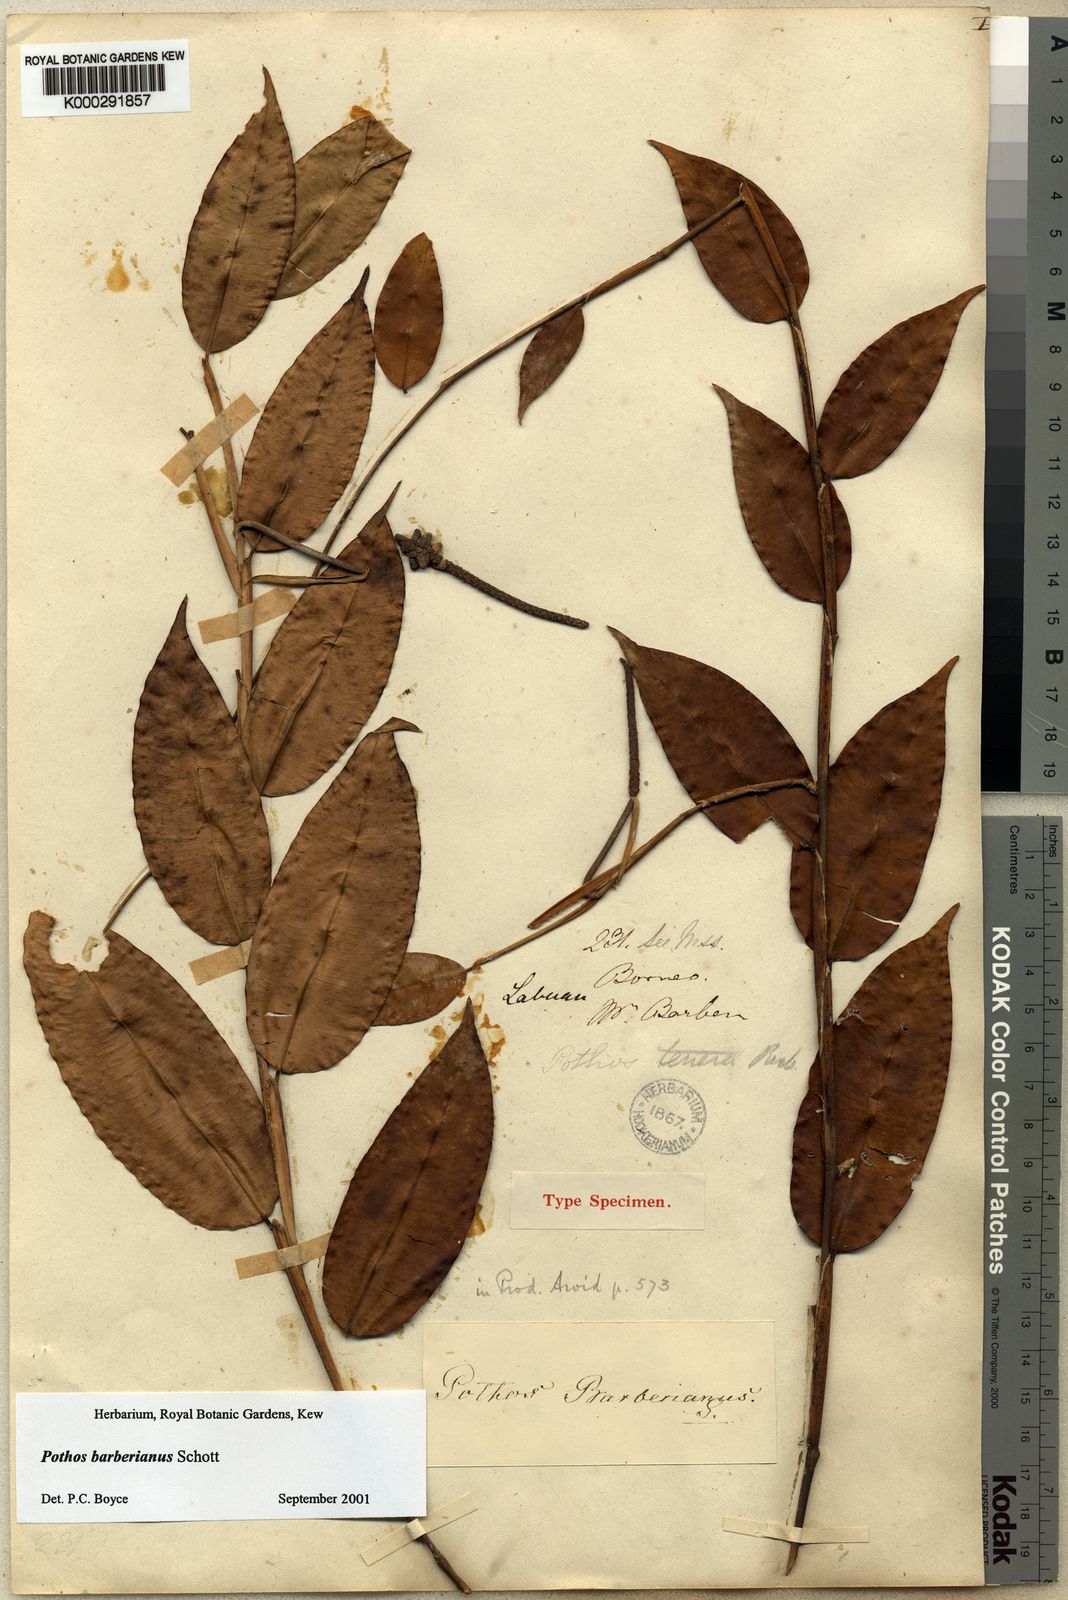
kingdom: Plantae
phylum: Tracheophyta
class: Liliopsida
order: Alismatales
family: Araceae
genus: Pothos
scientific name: Pothos barberianus
